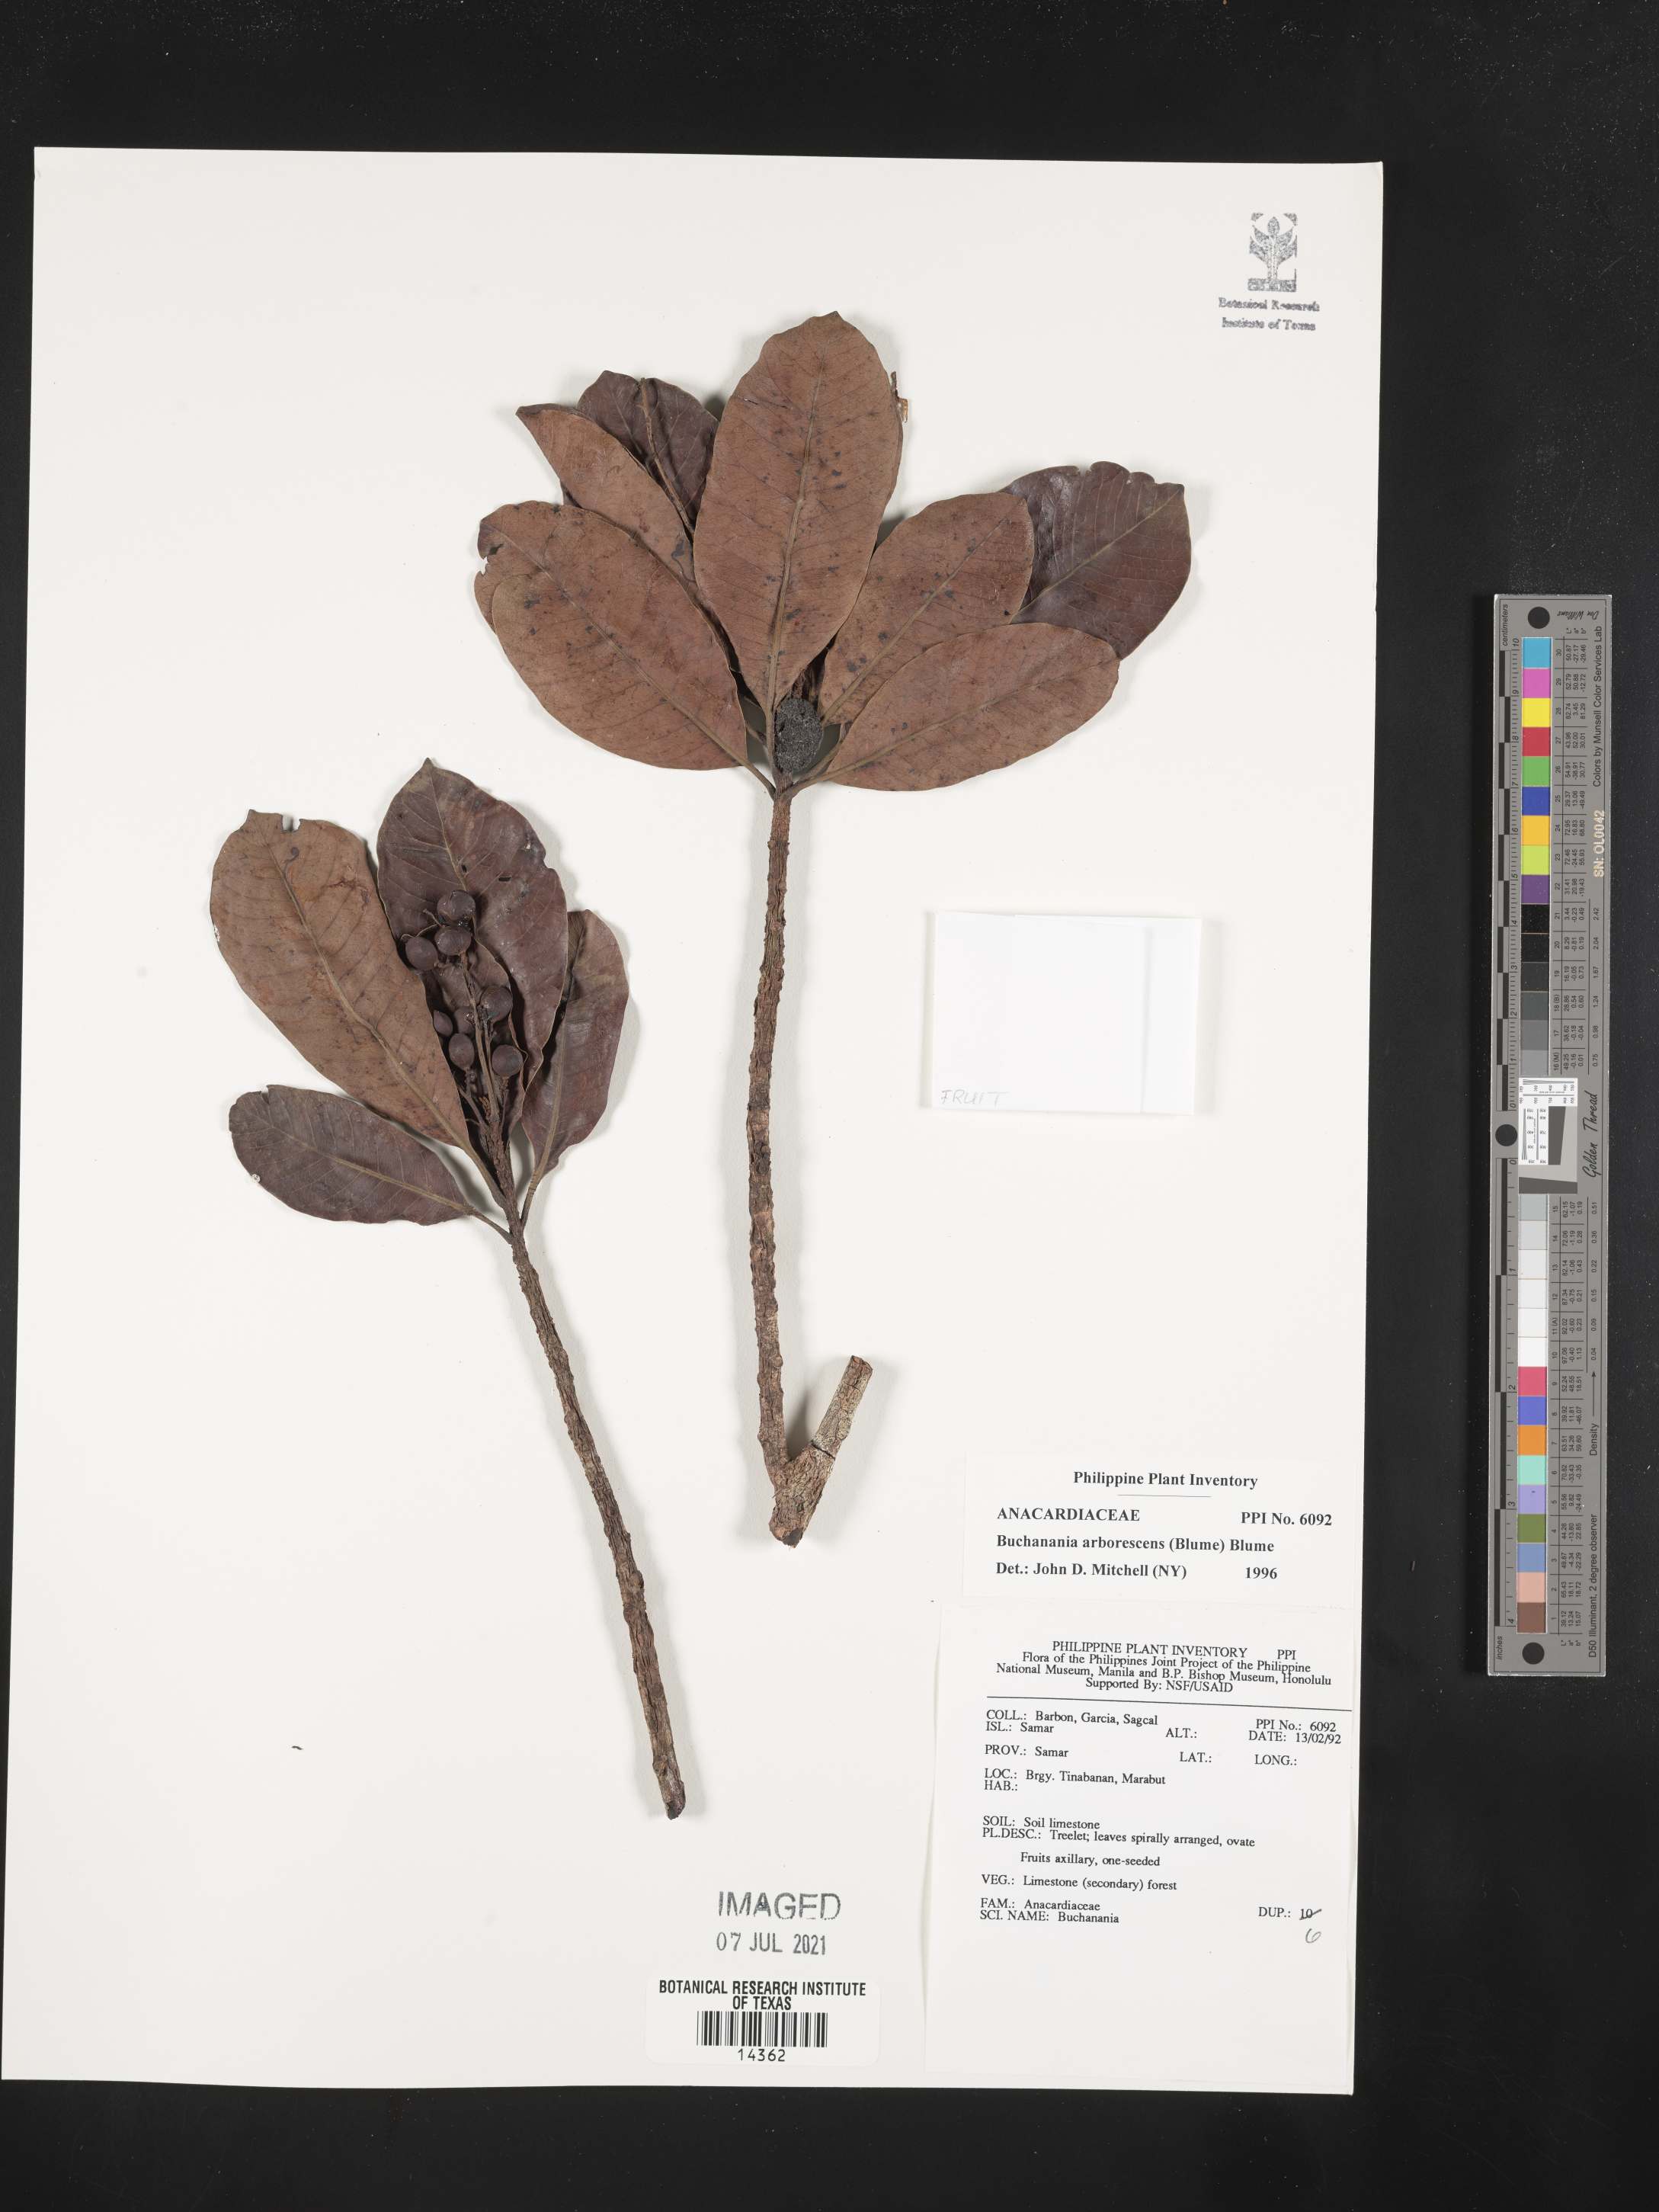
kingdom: Plantae
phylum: Tracheophyta
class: Magnoliopsida
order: Sapindales
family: Anacardiaceae
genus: Buchanania
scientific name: Buchanania arborescens
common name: Sparrow’s mango
